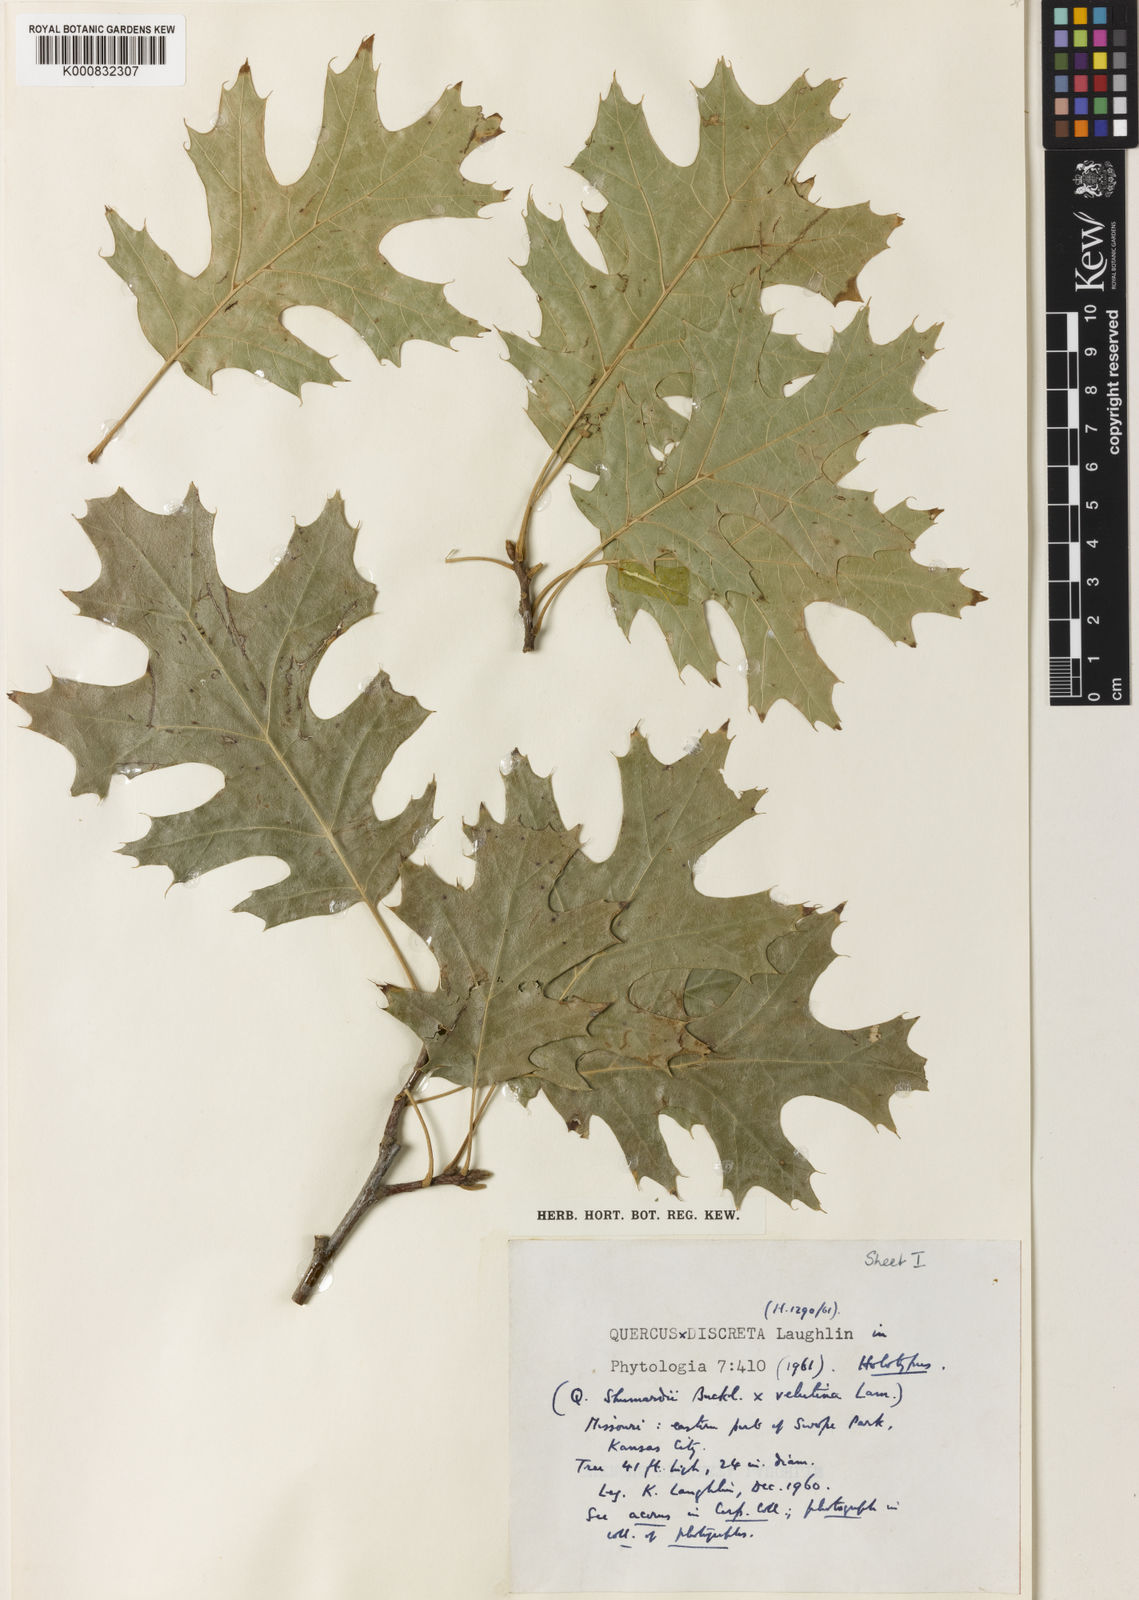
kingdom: Plantae
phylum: Tracheophyta
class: Magnoliopsida
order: Fagales
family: Fagaceae
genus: Quercus
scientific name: Quercus discreta
